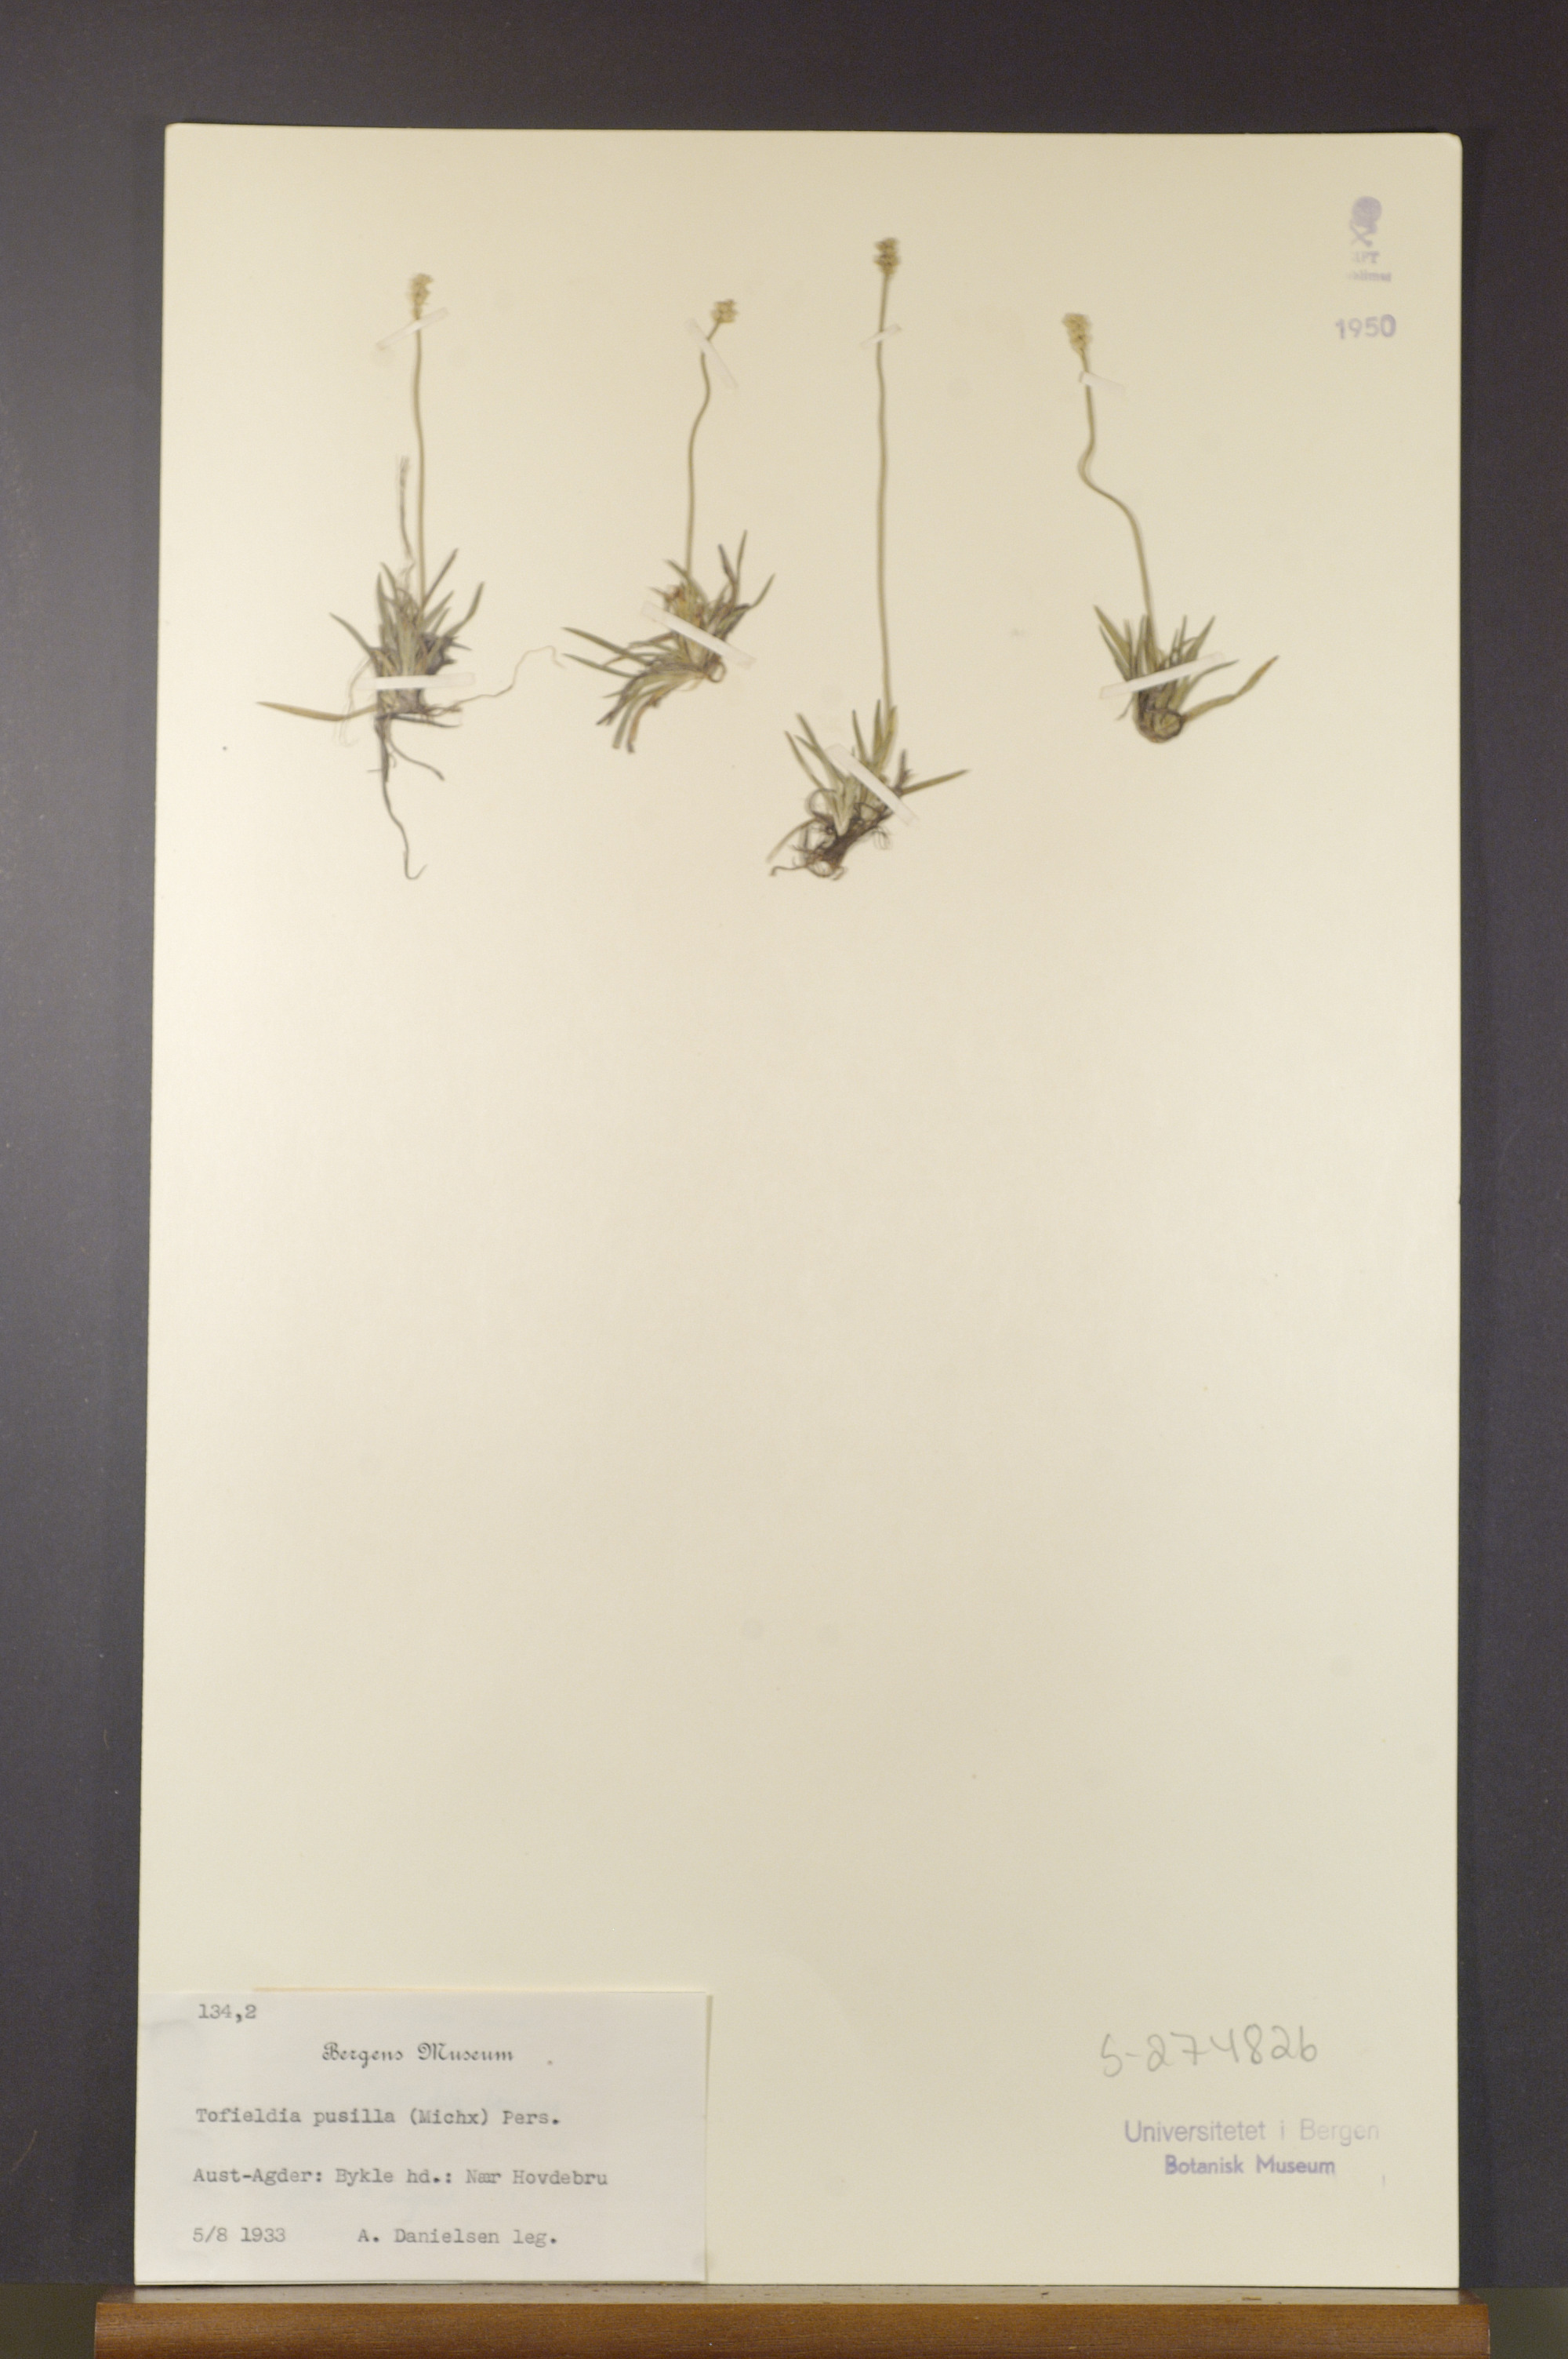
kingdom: Plantae
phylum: Tracheophyta
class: Liliopsida
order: Alismatales
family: Tofieldiaceae
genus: Tofieldia
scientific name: Tofieldia pusilla
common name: Scottish false asphodel
